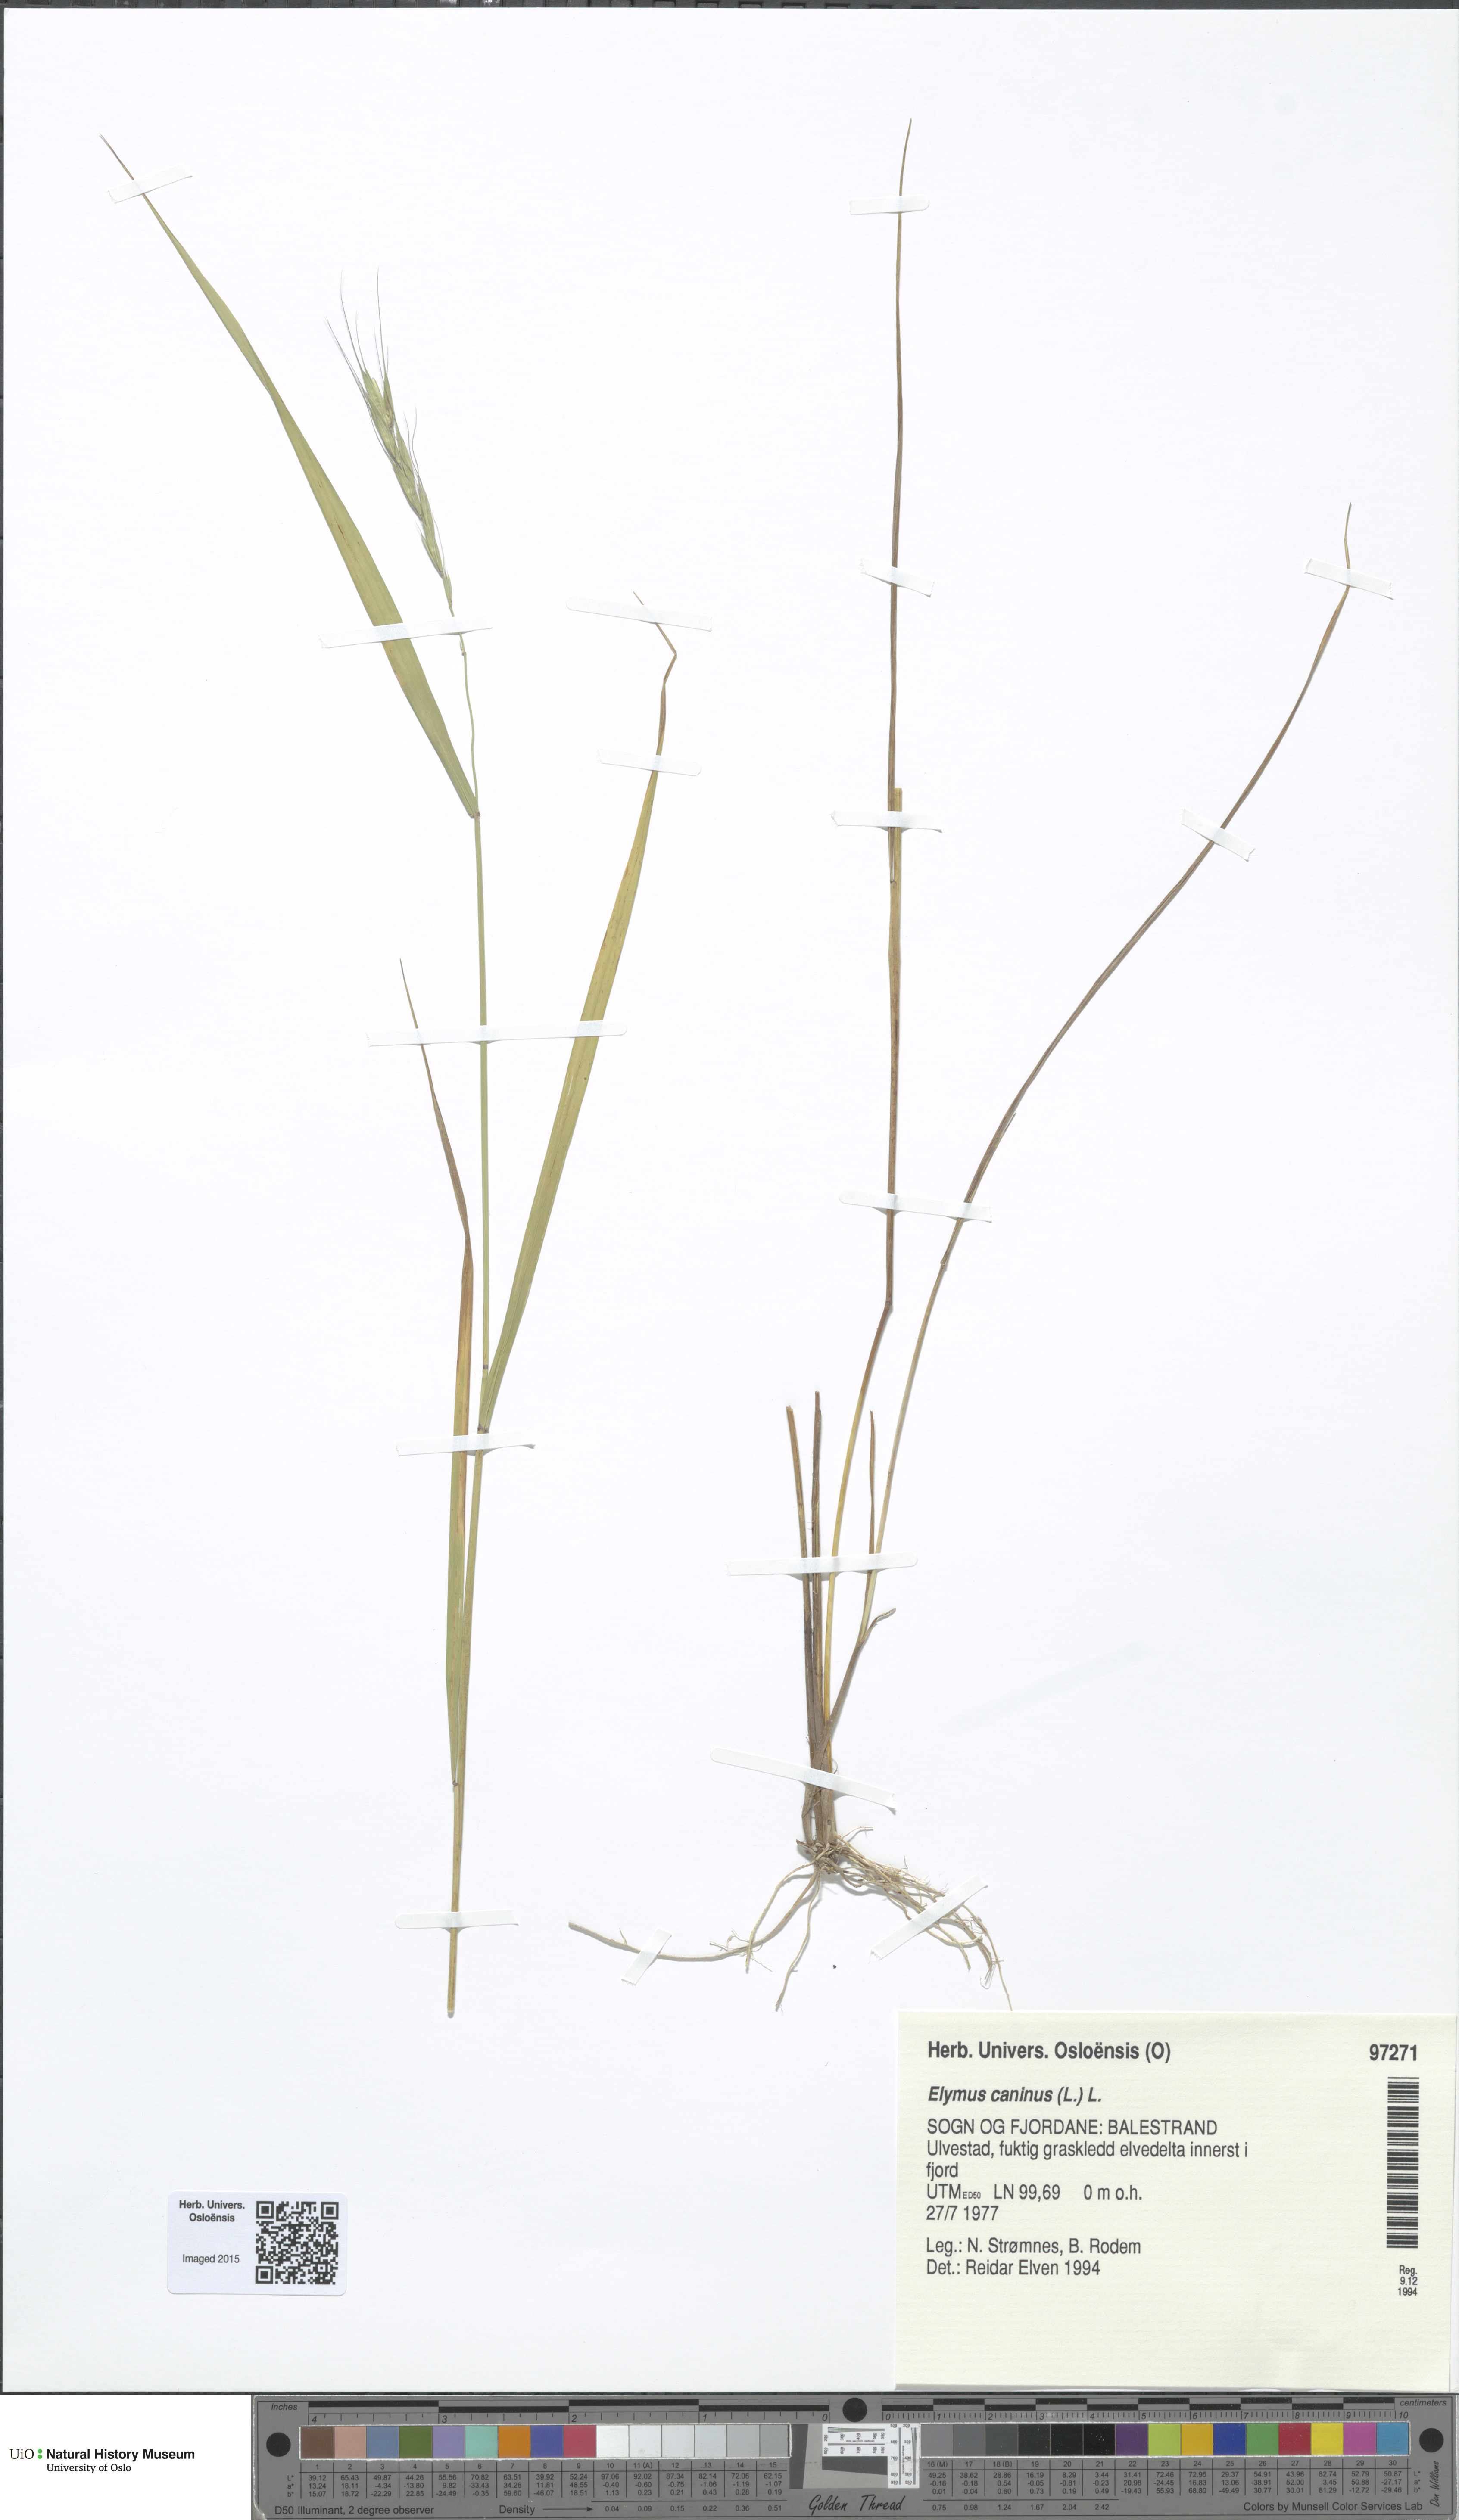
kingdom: Plantae
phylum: Tracheophyta
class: Liliopsida
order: Poales
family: Poaceae
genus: Elymus
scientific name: Elymus caninus
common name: Bearded couch
